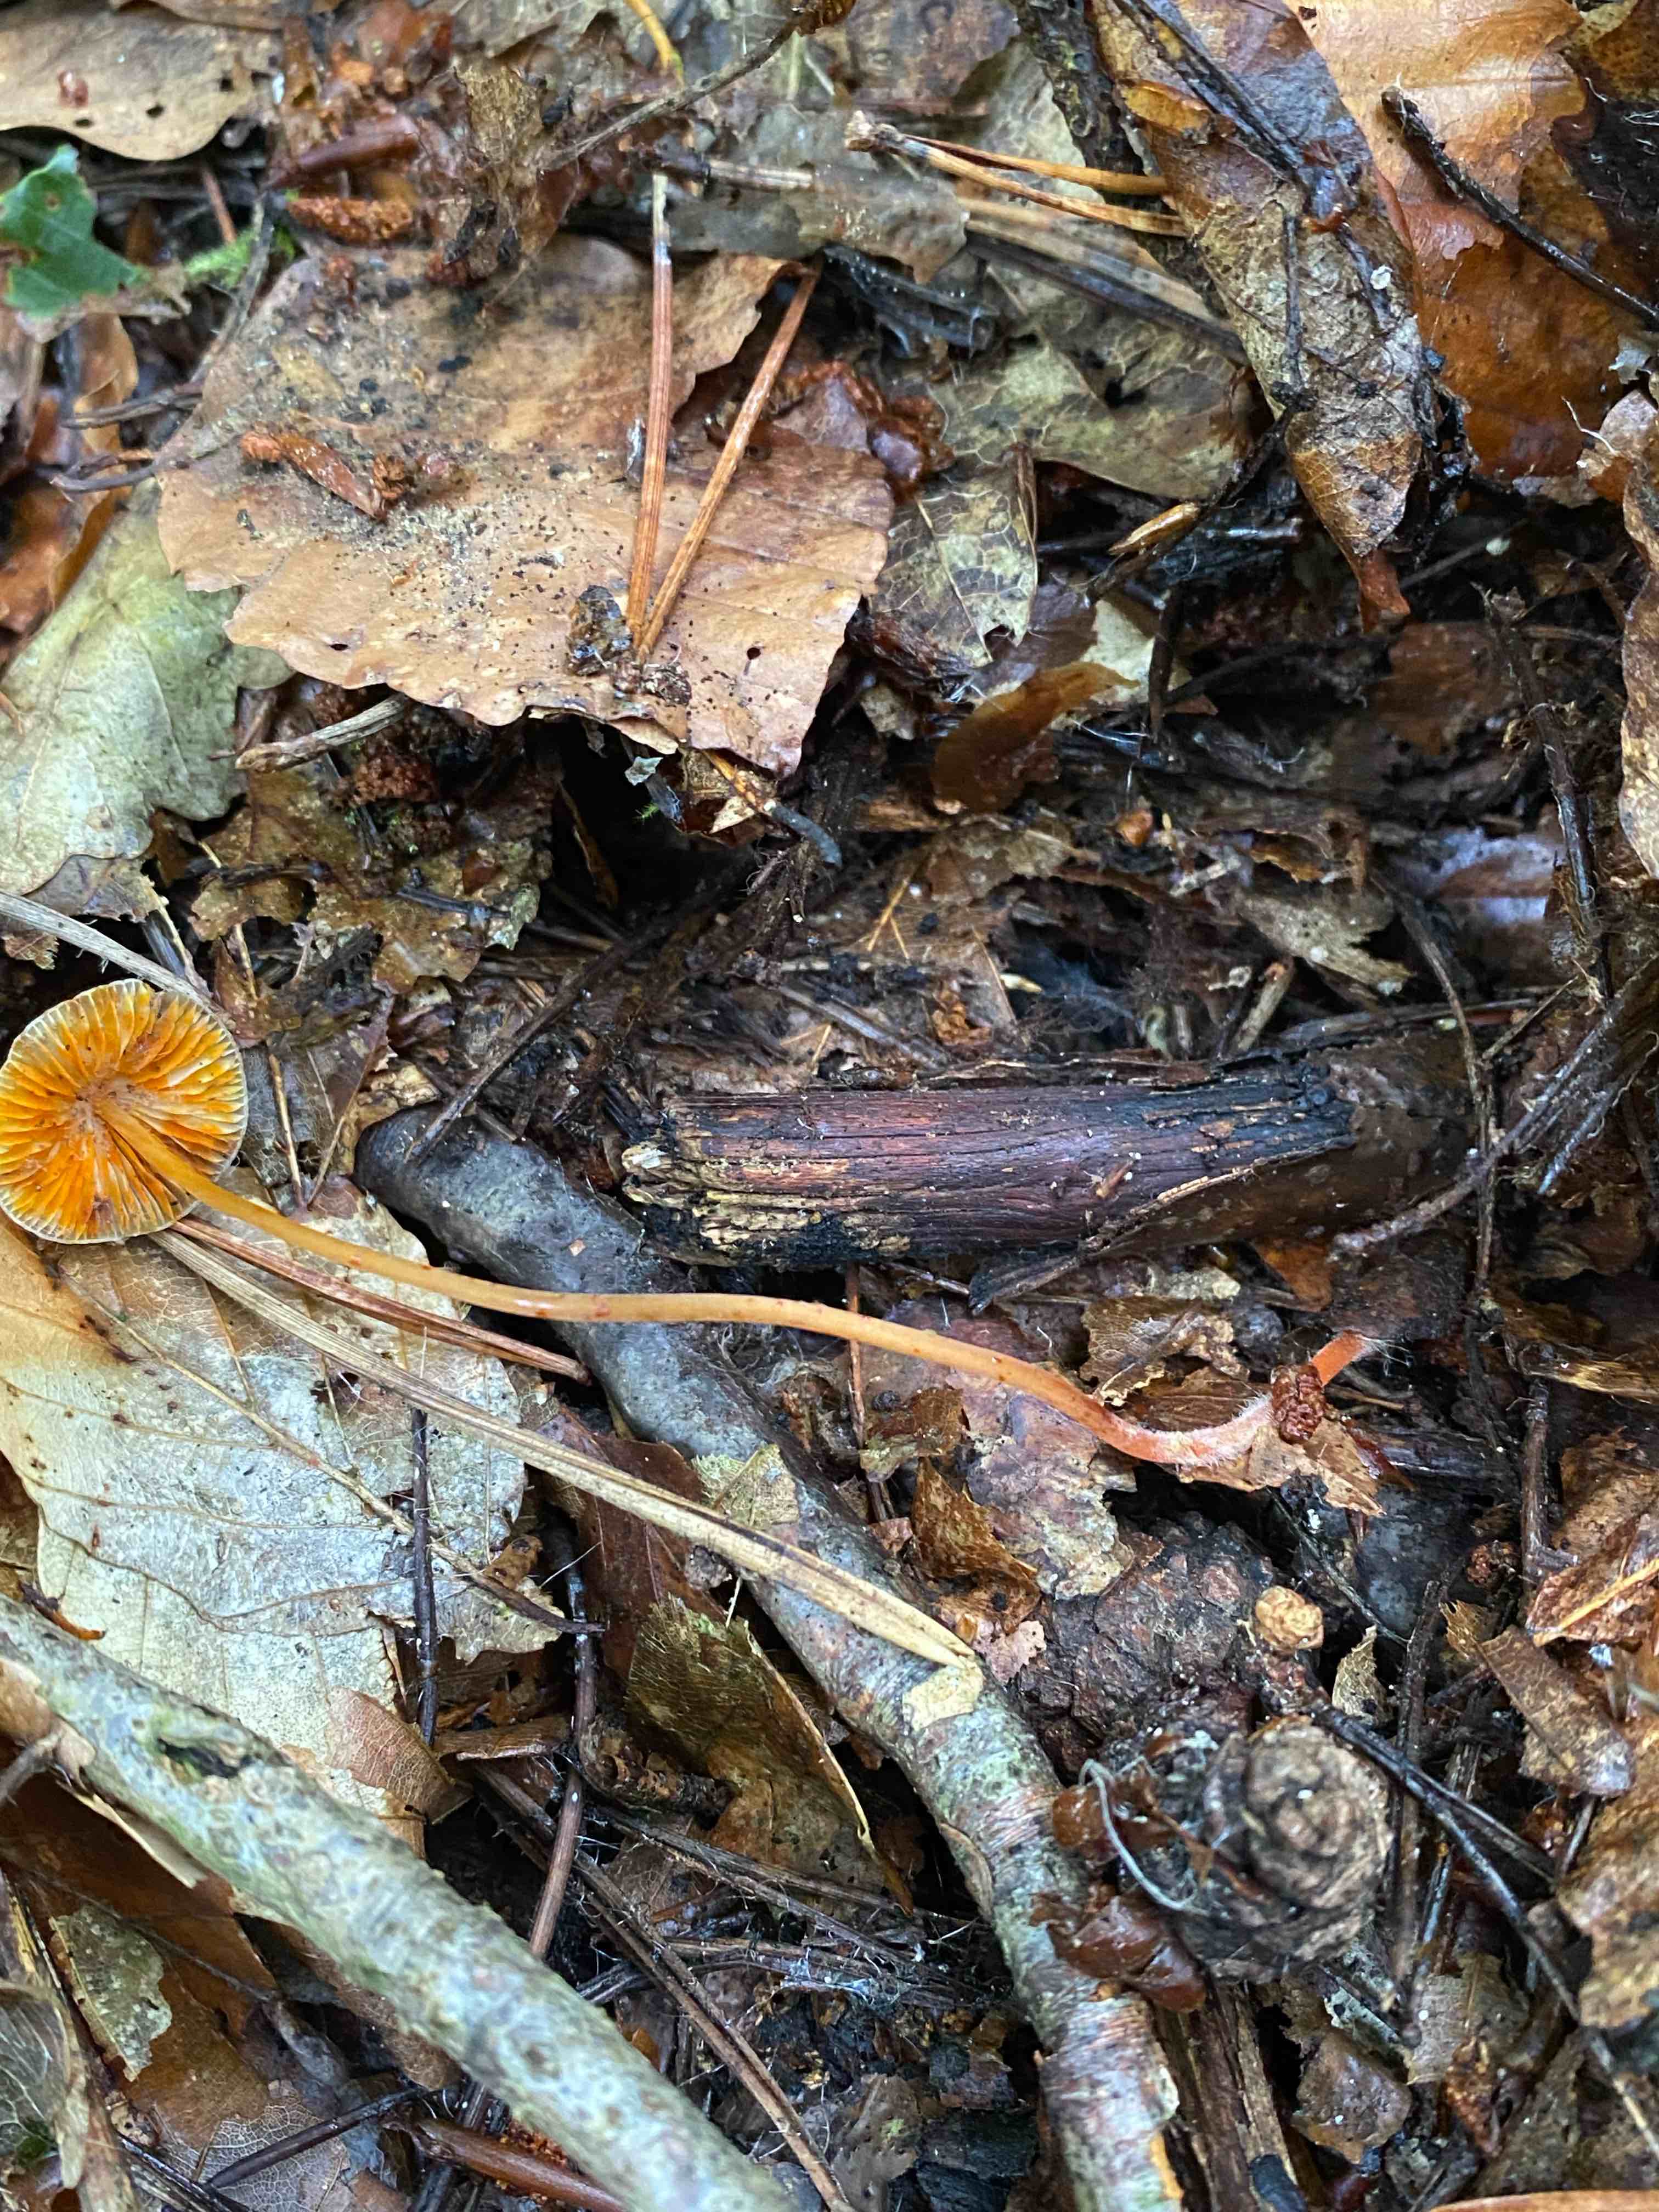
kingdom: Fungi
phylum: Basidiomycota
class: Agaricomycetes
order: Agaricales
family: Mycenaceae
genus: Mycena
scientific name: Mycena crocata
